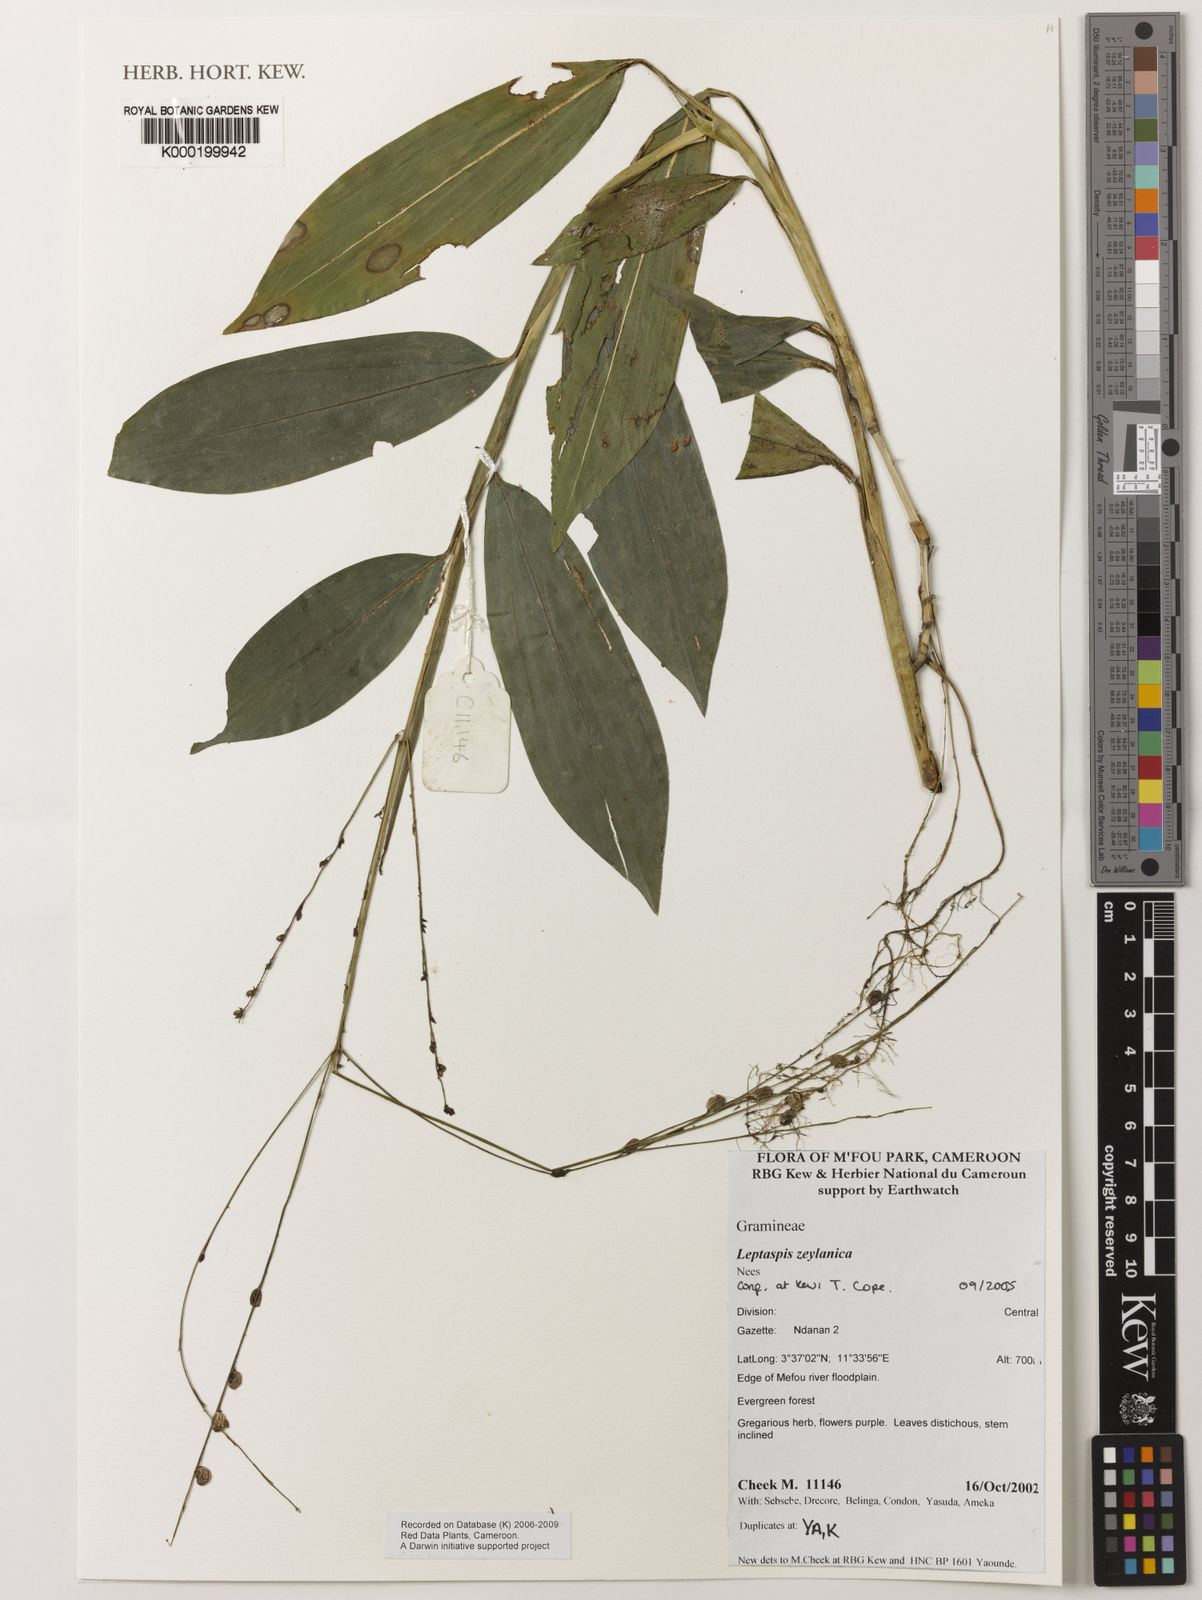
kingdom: Plantae
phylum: Tracheophyta
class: Liliopsida
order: Poales
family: Poaceae
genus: Leptaspis
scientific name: Leptaspis zeylanica
